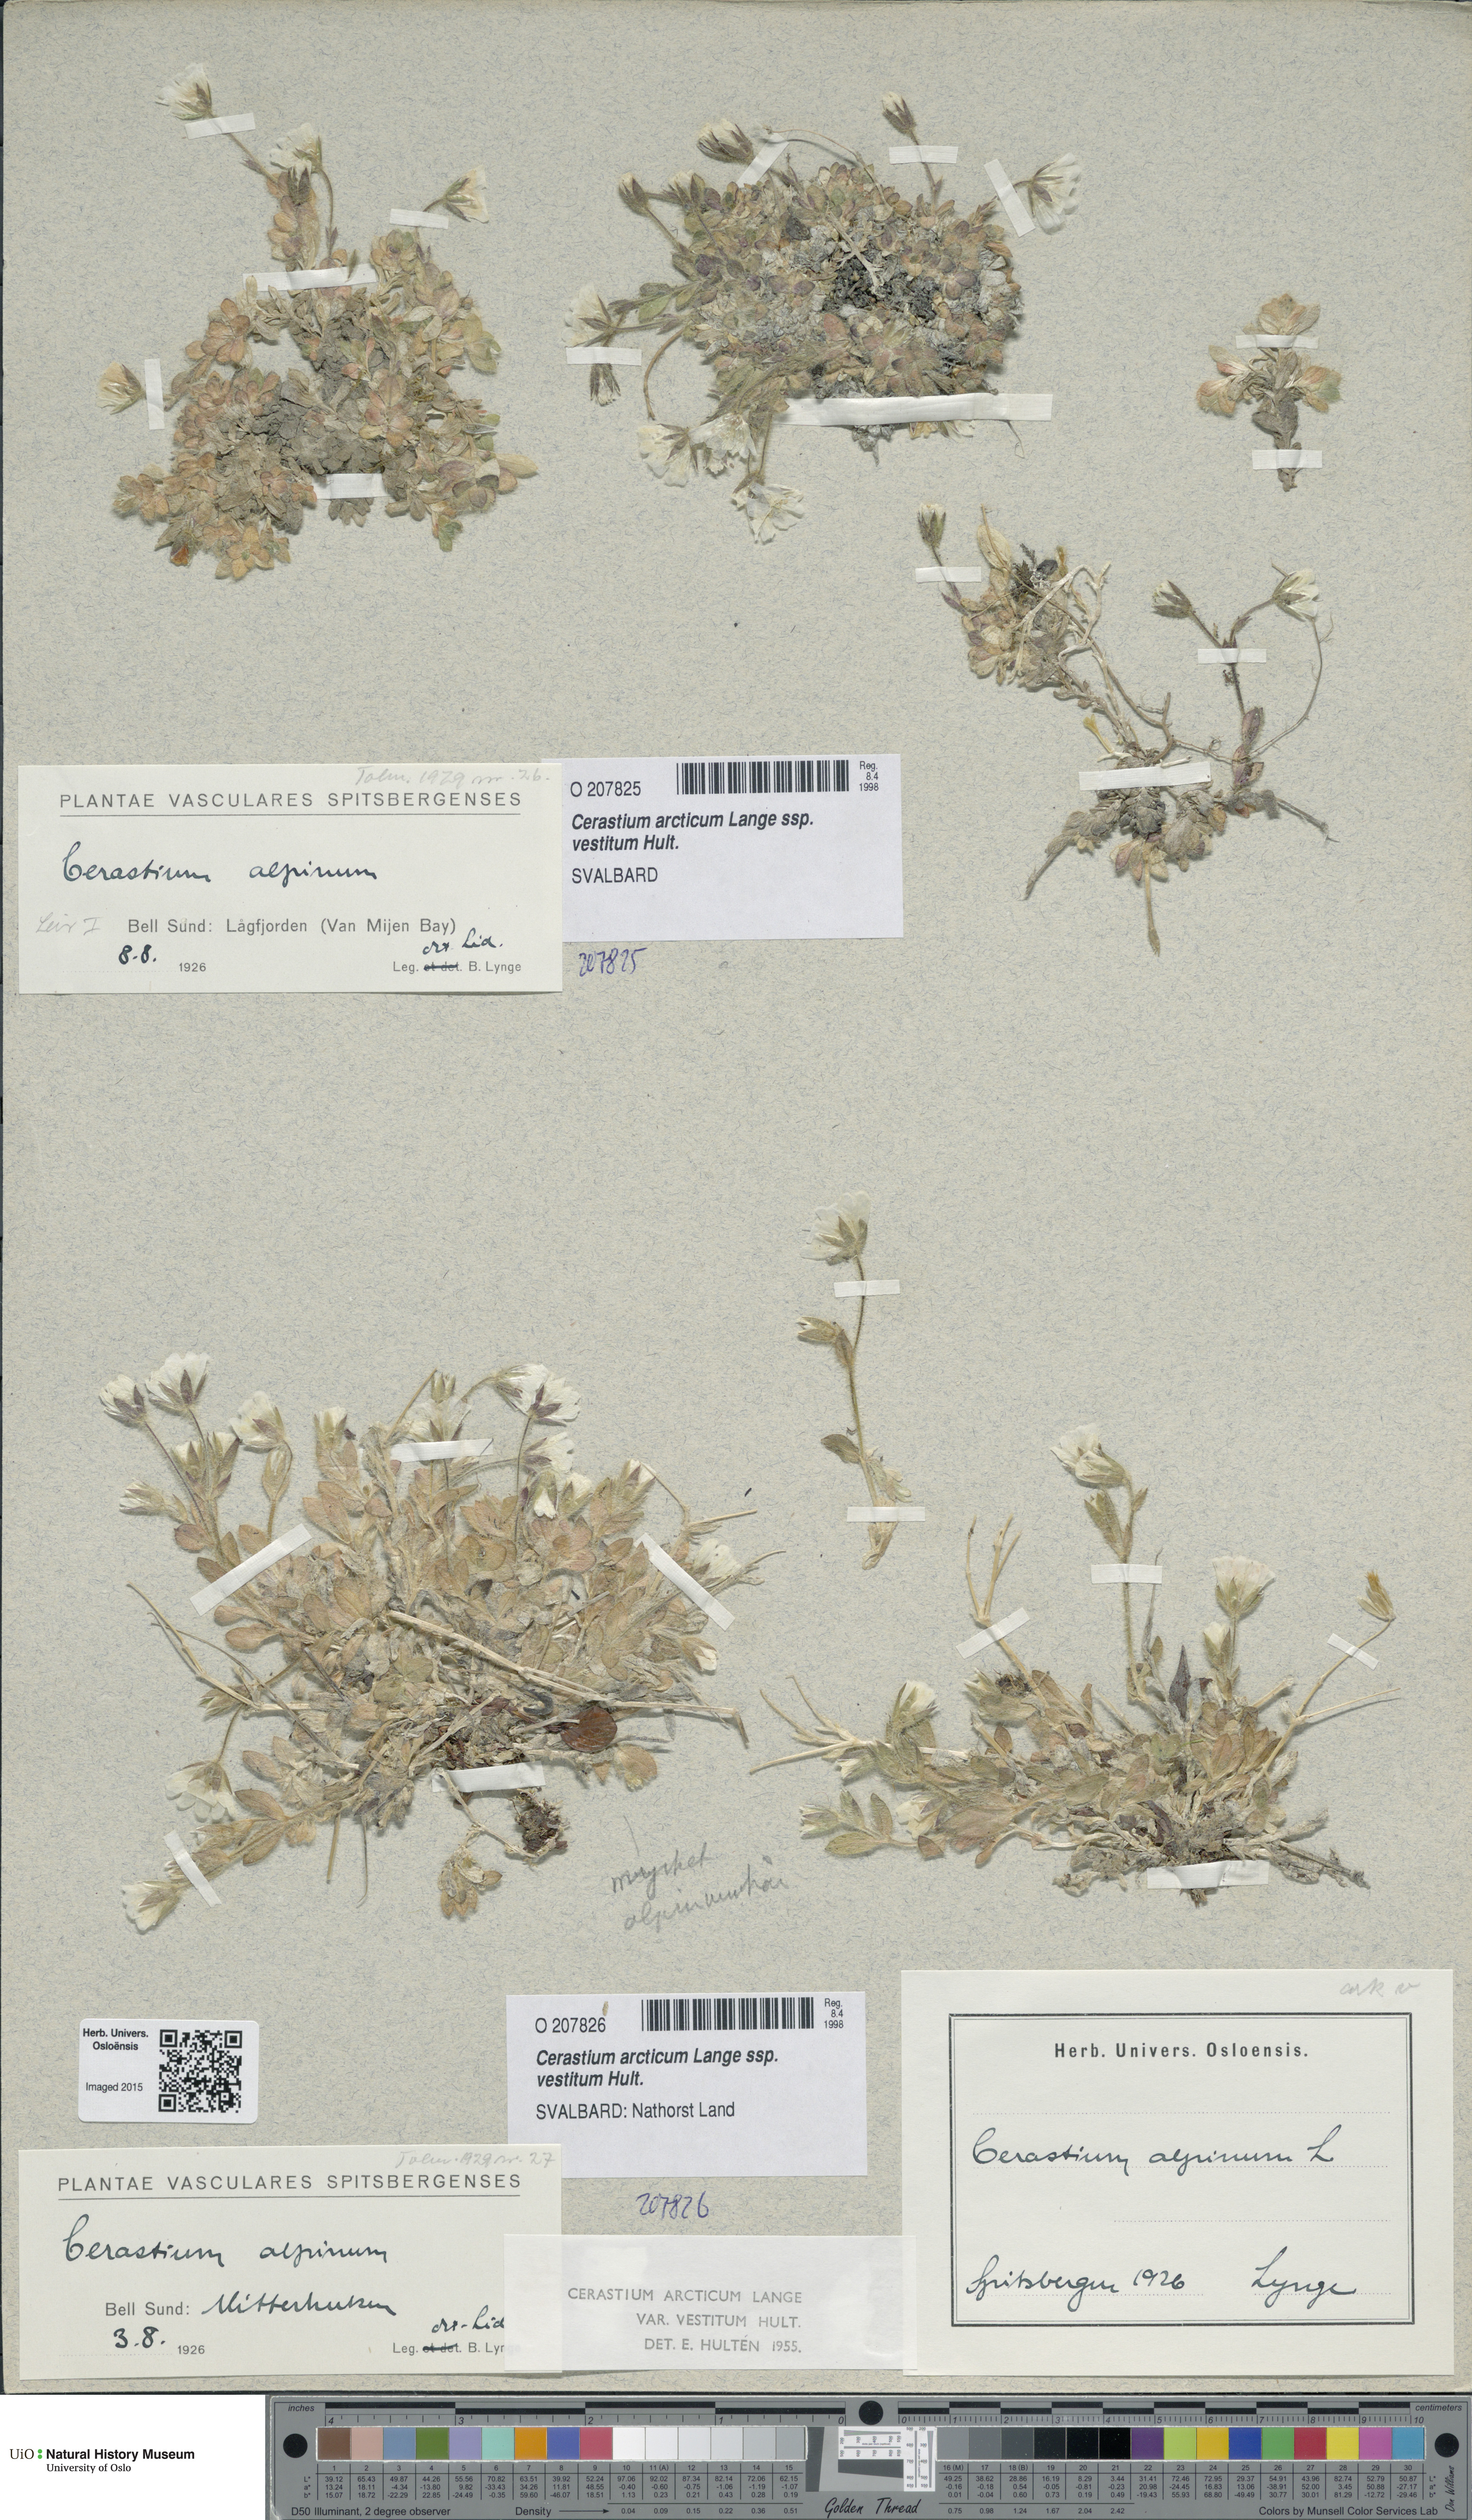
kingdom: Plantae
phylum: Tracheophyta
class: Magnoliopsida
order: Caryophyllales
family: Caryophyllaceae
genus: Cerastium
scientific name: Cerastium arcticum
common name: Arctic mouse-ear
